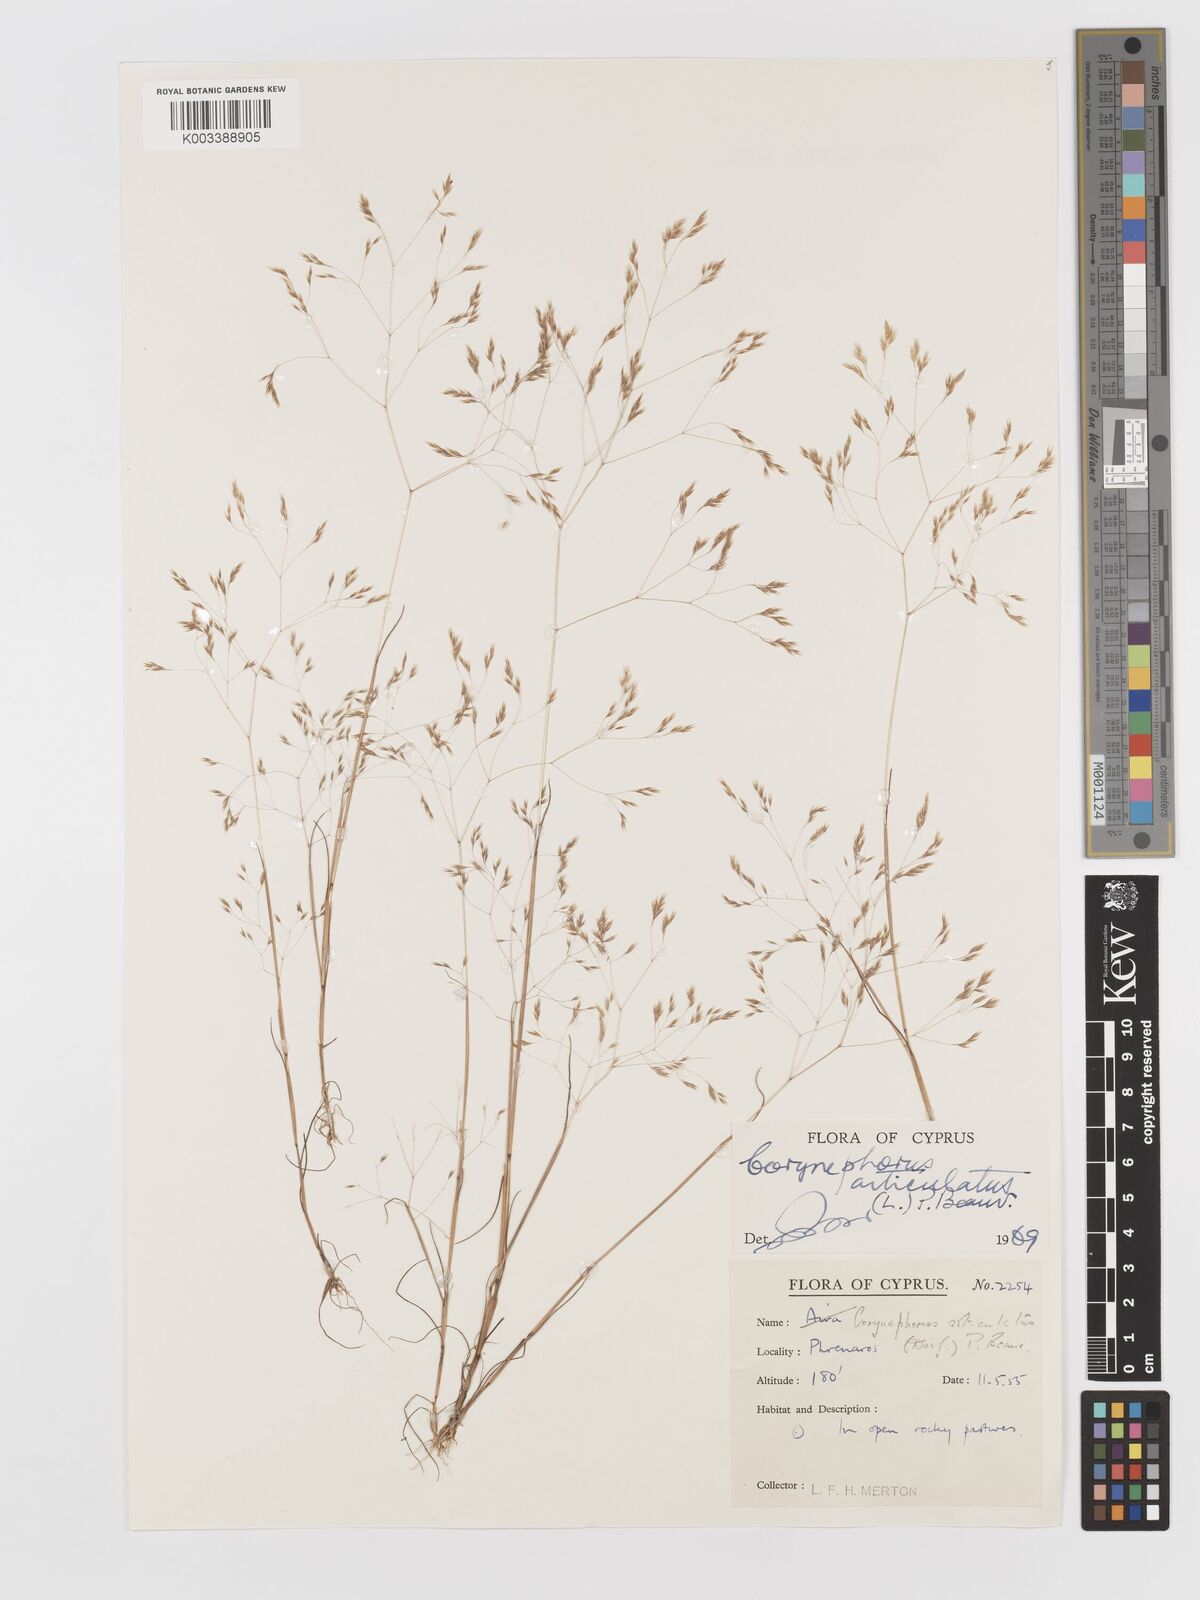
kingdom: Plantae
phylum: Tracheophyta
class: Liliopsida
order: Poales
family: Poaceae
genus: Corynephorus
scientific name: Corynephorus divaricatus
